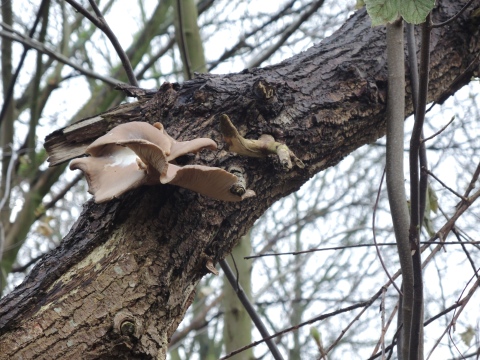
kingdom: Fungi
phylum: Basidiomycota
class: Agaricomycetes
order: Agaricales
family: Pleurotaceae
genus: Pleurotus
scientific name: Pleurotus ostreatus
